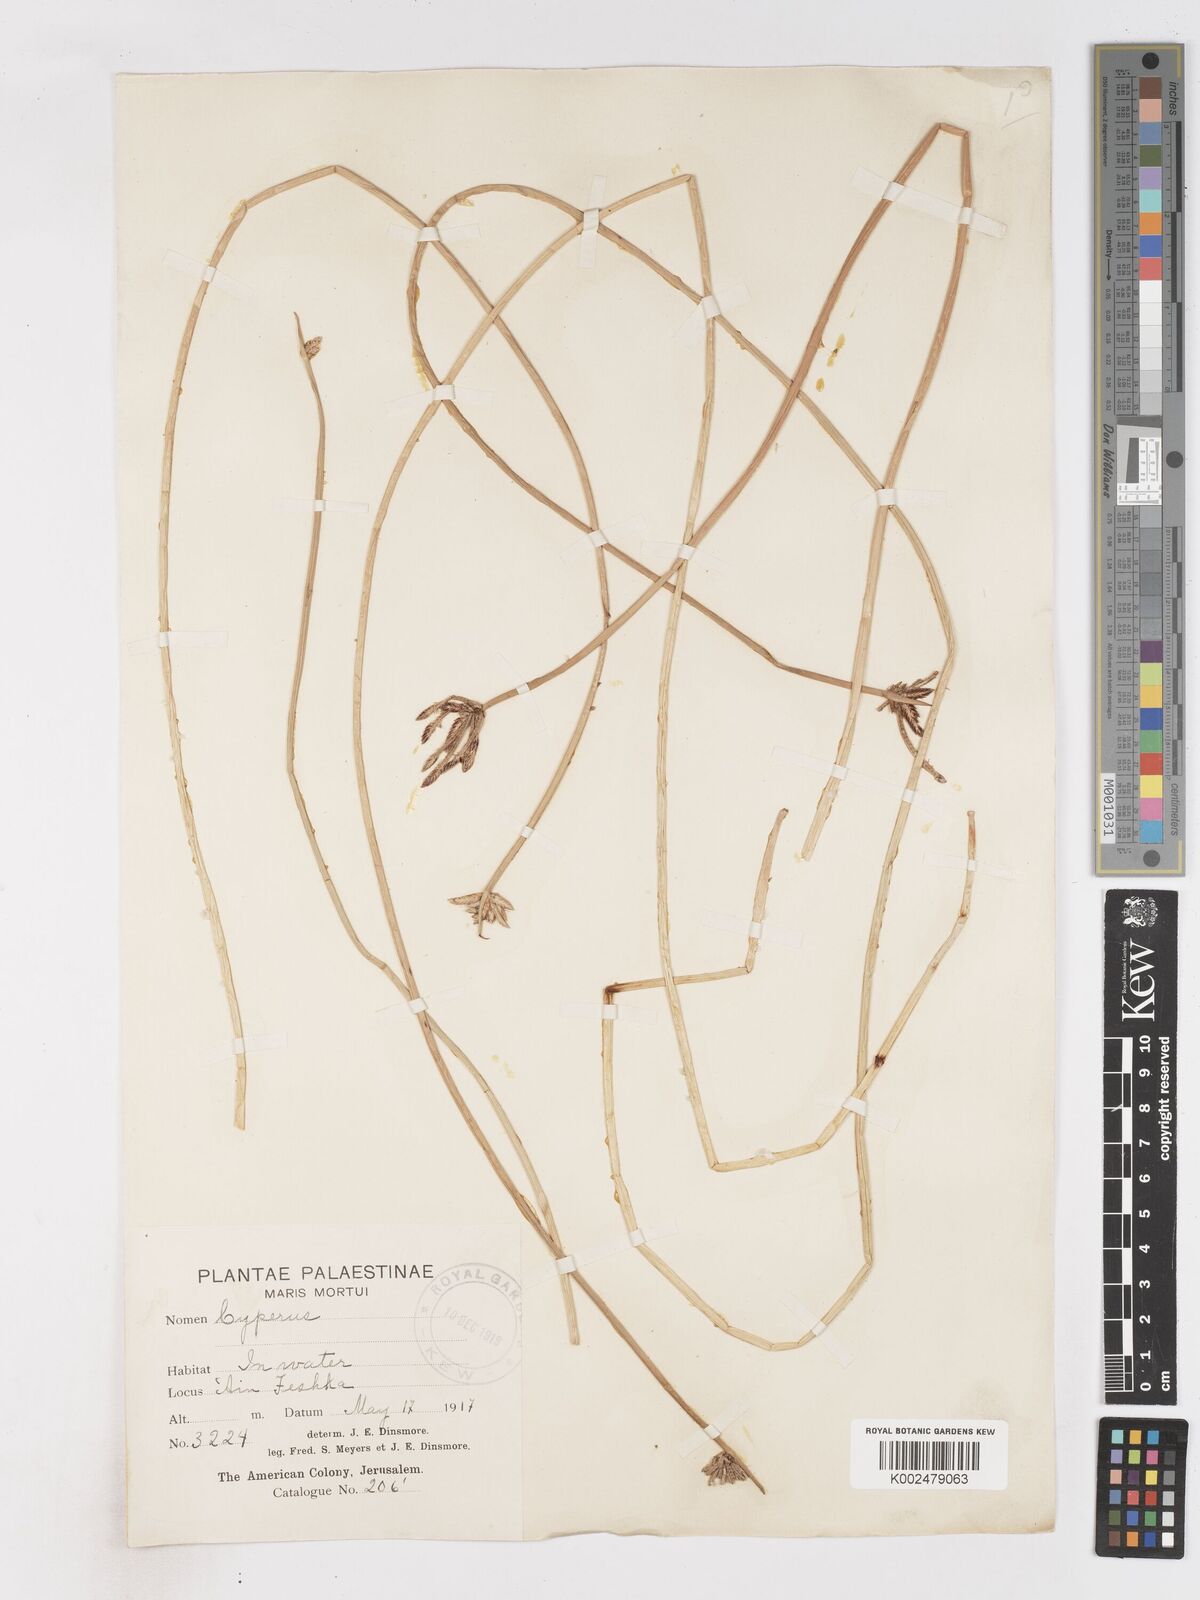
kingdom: Plantae
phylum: Tracheophyta
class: Liliopsida
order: Poales
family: Cyperaceae
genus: Cyperus
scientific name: Cyperus laevigatus
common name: Smooth flat sedge
